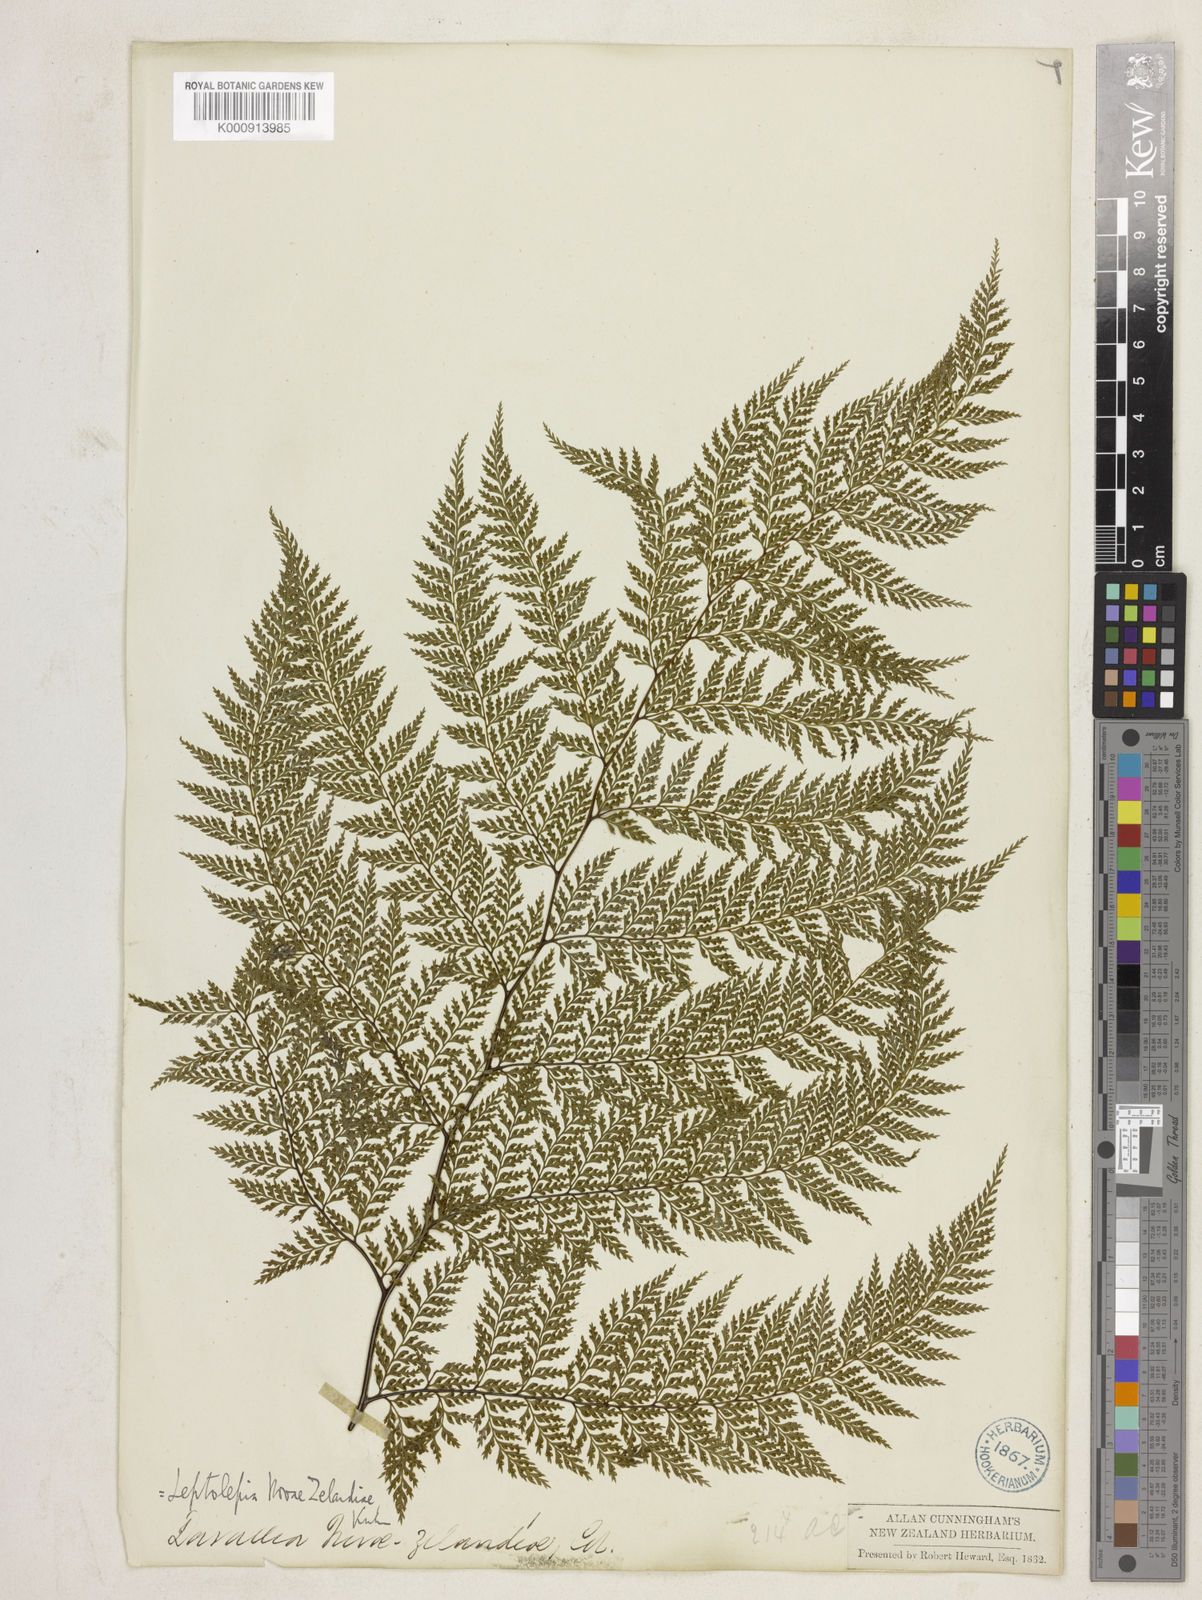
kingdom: Plantae
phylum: Tracheophyta
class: Polypodiopsida
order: Polypodiales
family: Dennstaedtiaceae
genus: Dennstaedtia
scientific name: Dennstaedtia novae-zelandiae
